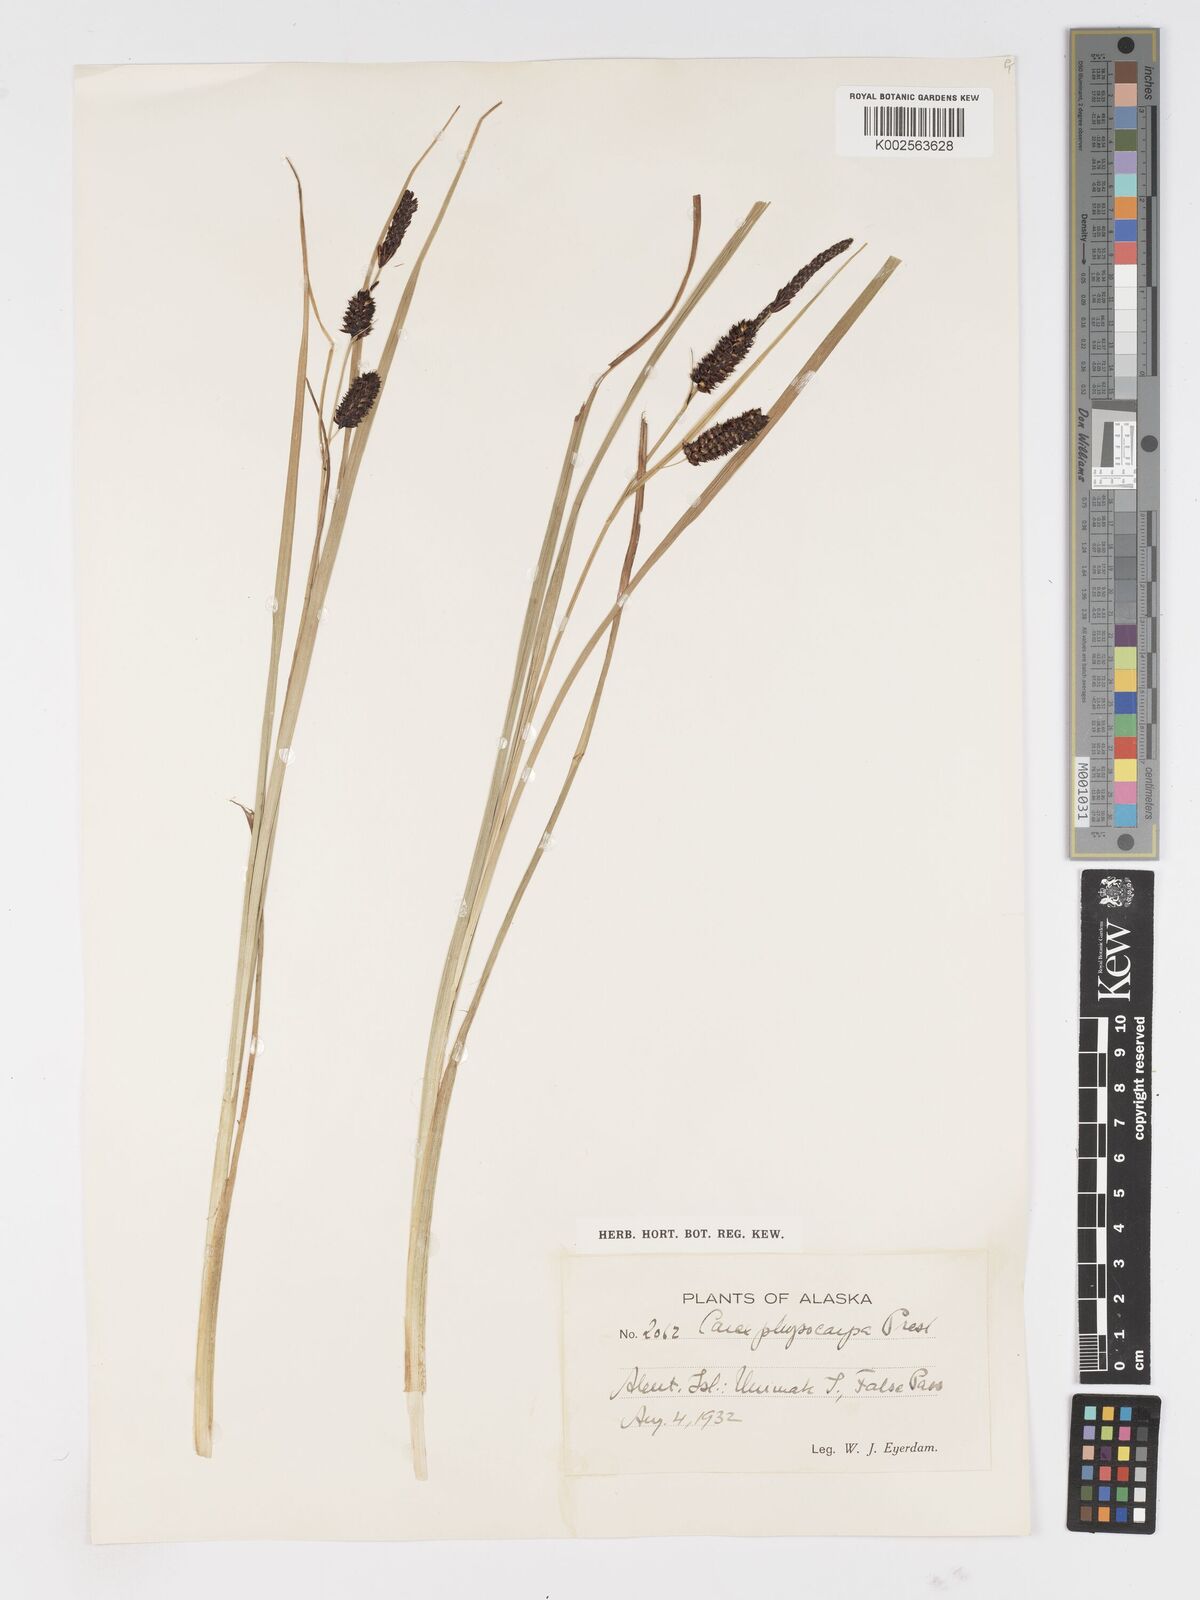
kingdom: Plantae
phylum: Tracheophyta
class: Liliopsida
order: Poales
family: Cyperaceae
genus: Carex
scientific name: Carex saxatilis
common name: Russet sedge
